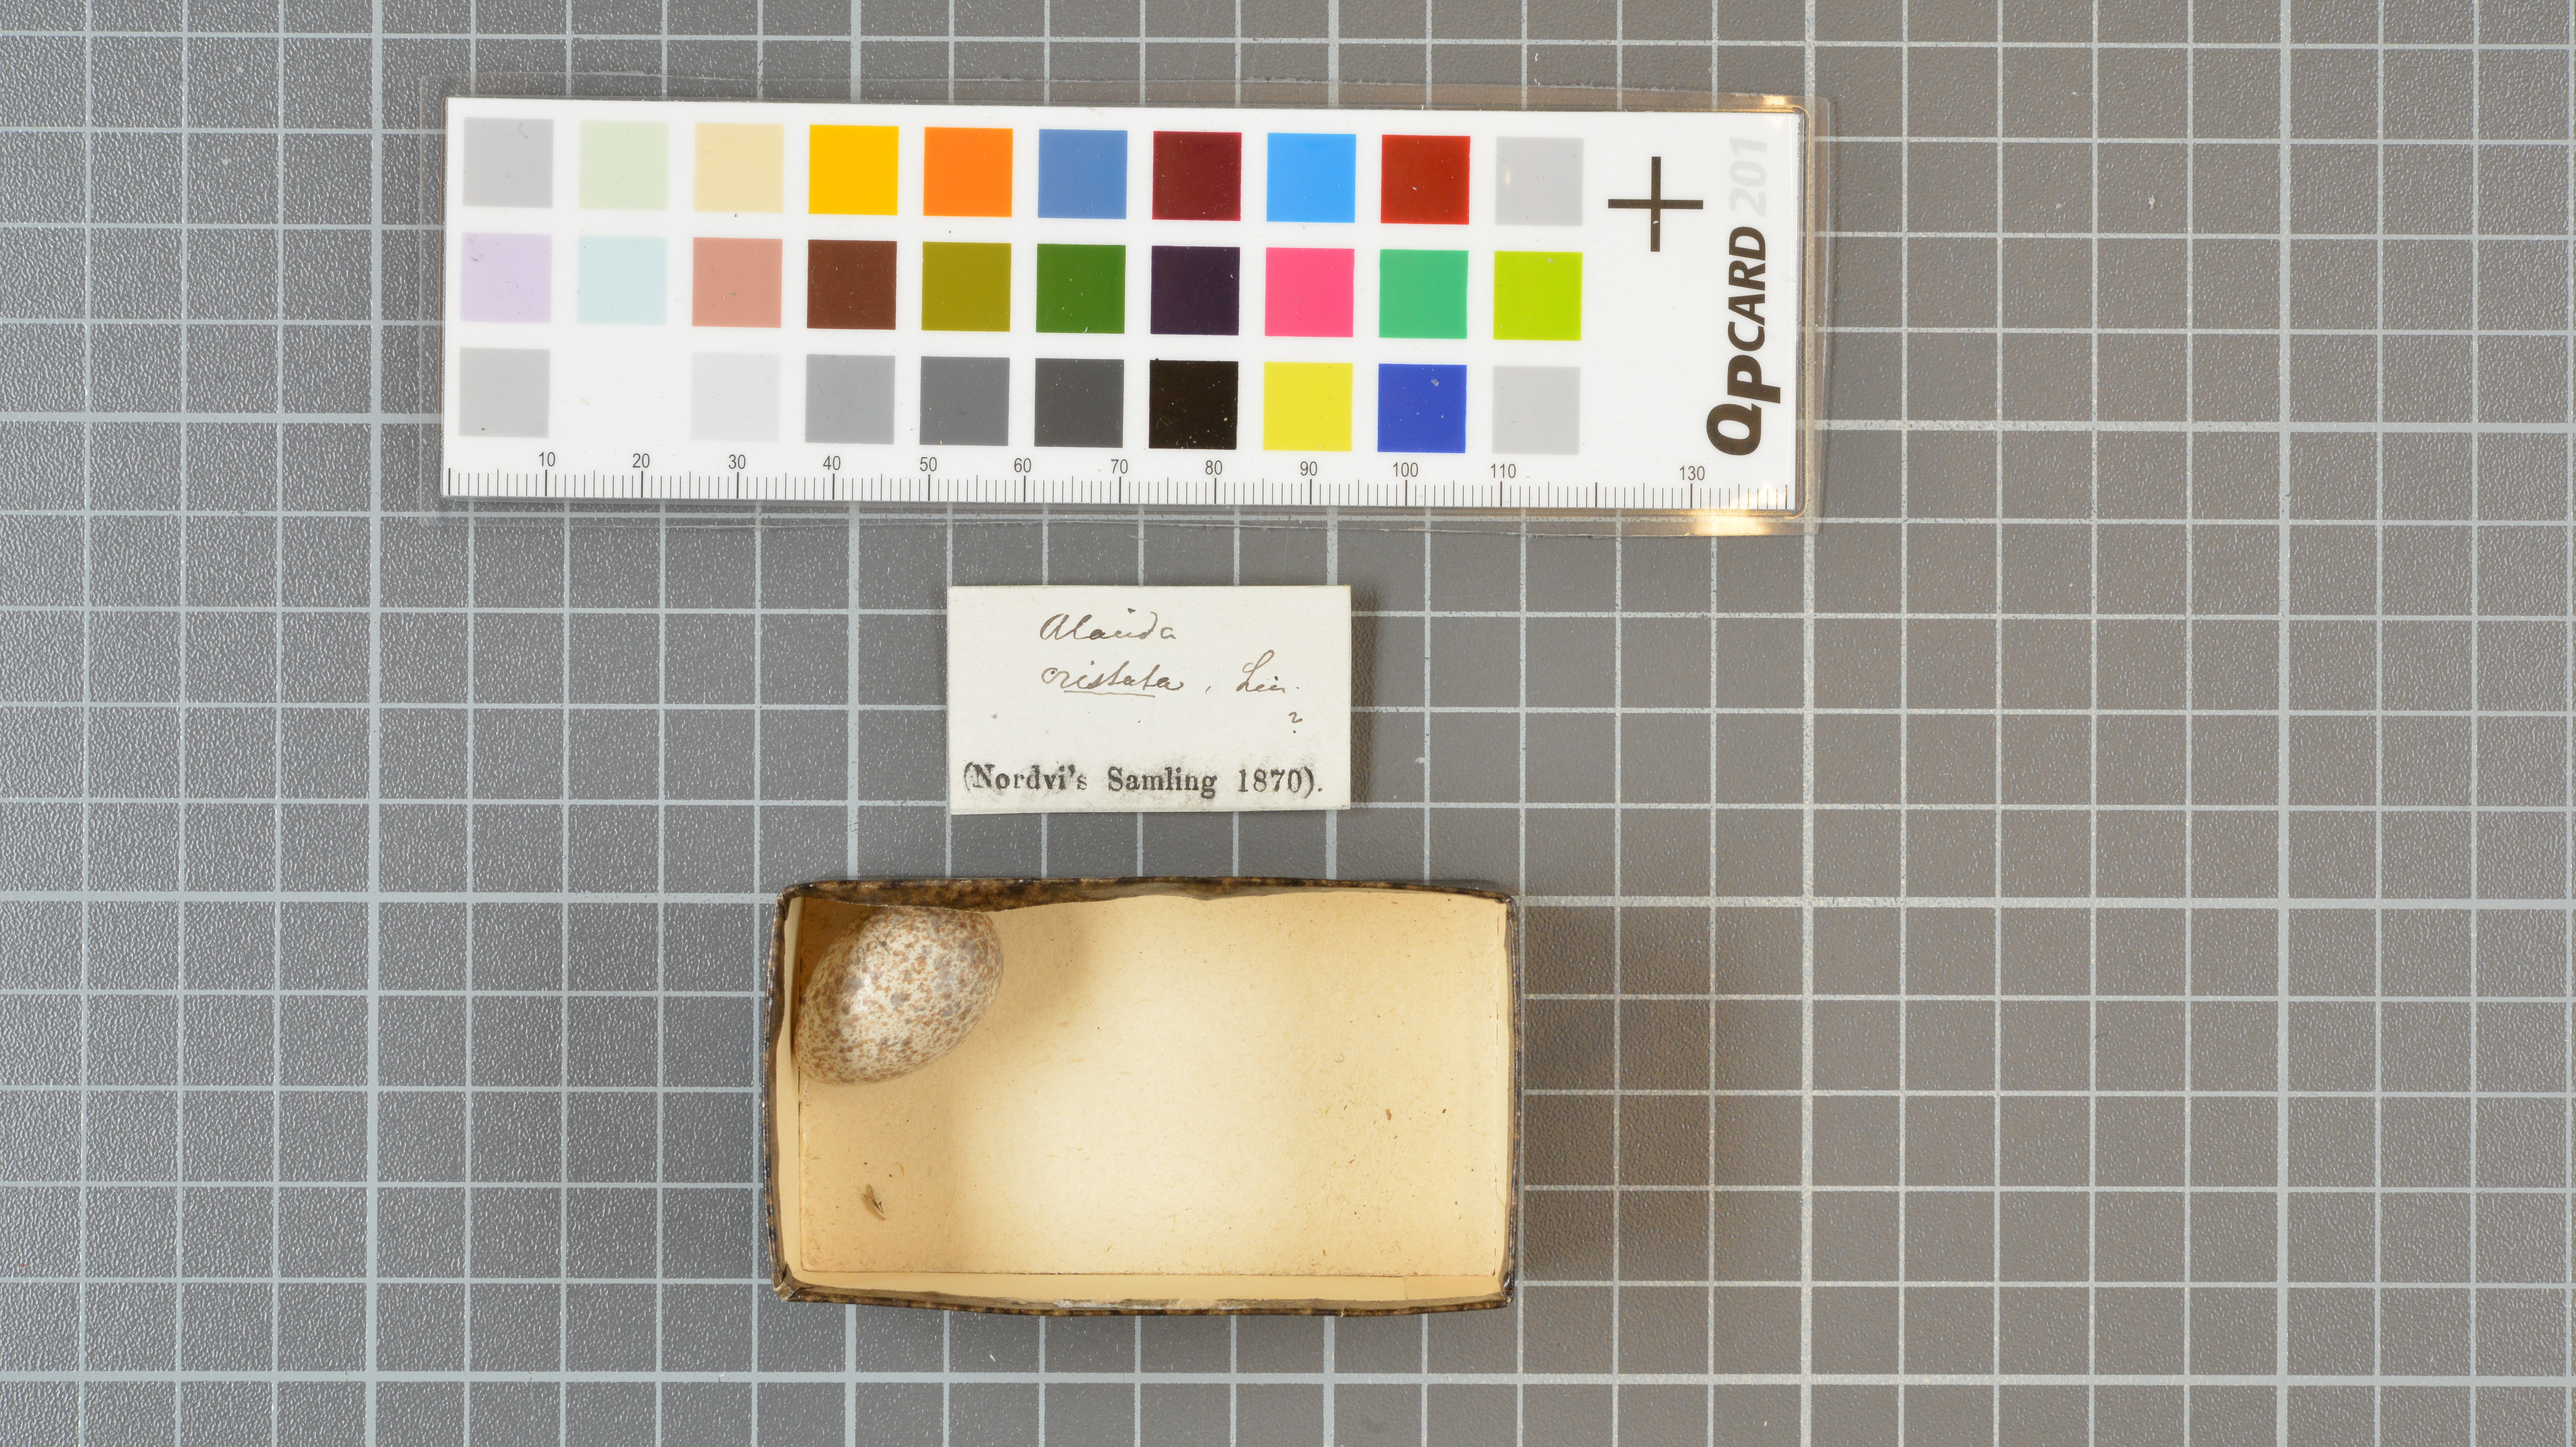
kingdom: Animalia
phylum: Chordata
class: Aves
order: Passeriformes
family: Alaudidae
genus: Galerida
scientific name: Galerida cristata
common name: Crested lark
